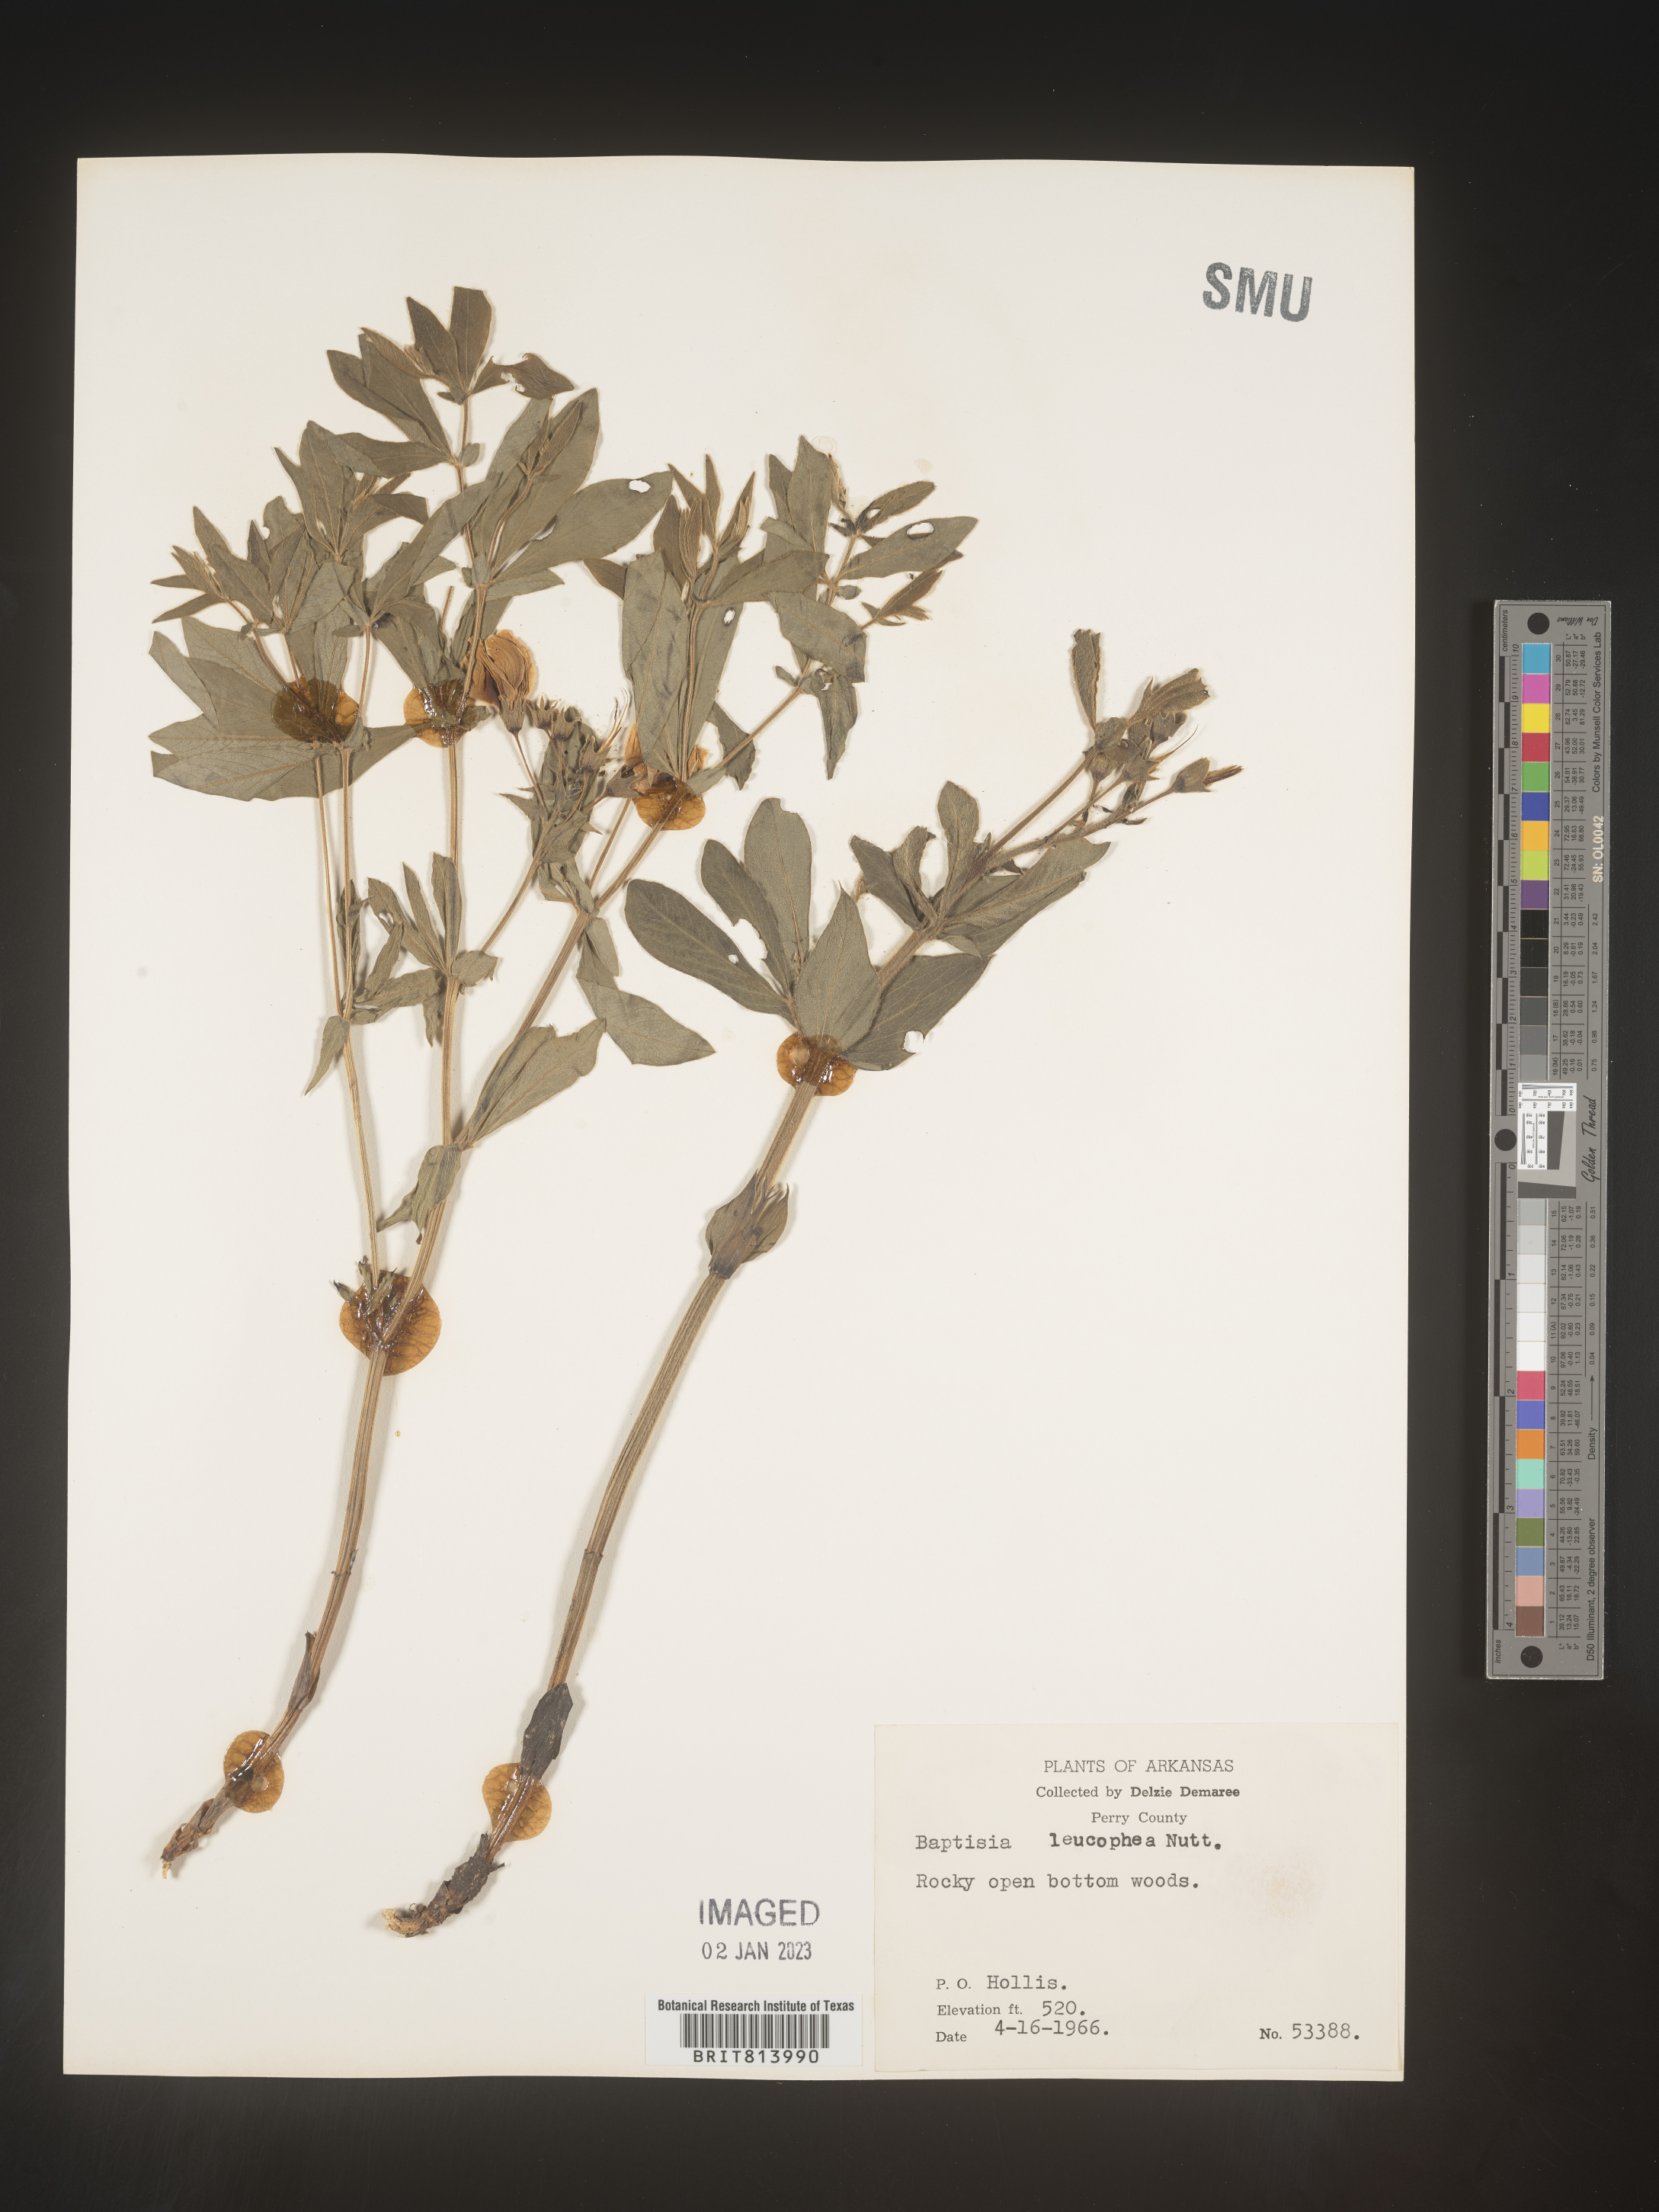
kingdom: Plantae
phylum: Tracheophyta
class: Magnoliopsida
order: Fabales
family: Fabaceae
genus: Baptisia
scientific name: Baptisia bracteata
